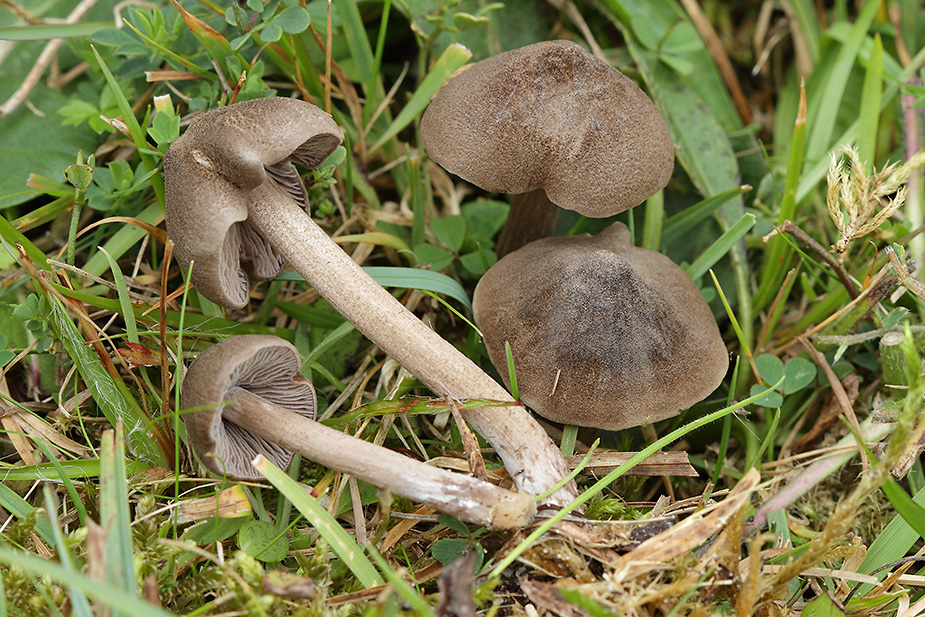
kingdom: Fungi
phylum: Basidiomycota
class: Agaricomycetes
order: Agaricales
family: Entolomataceae
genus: Entoloma
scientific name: Entoloma jubatum
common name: ruskællet rødblad
